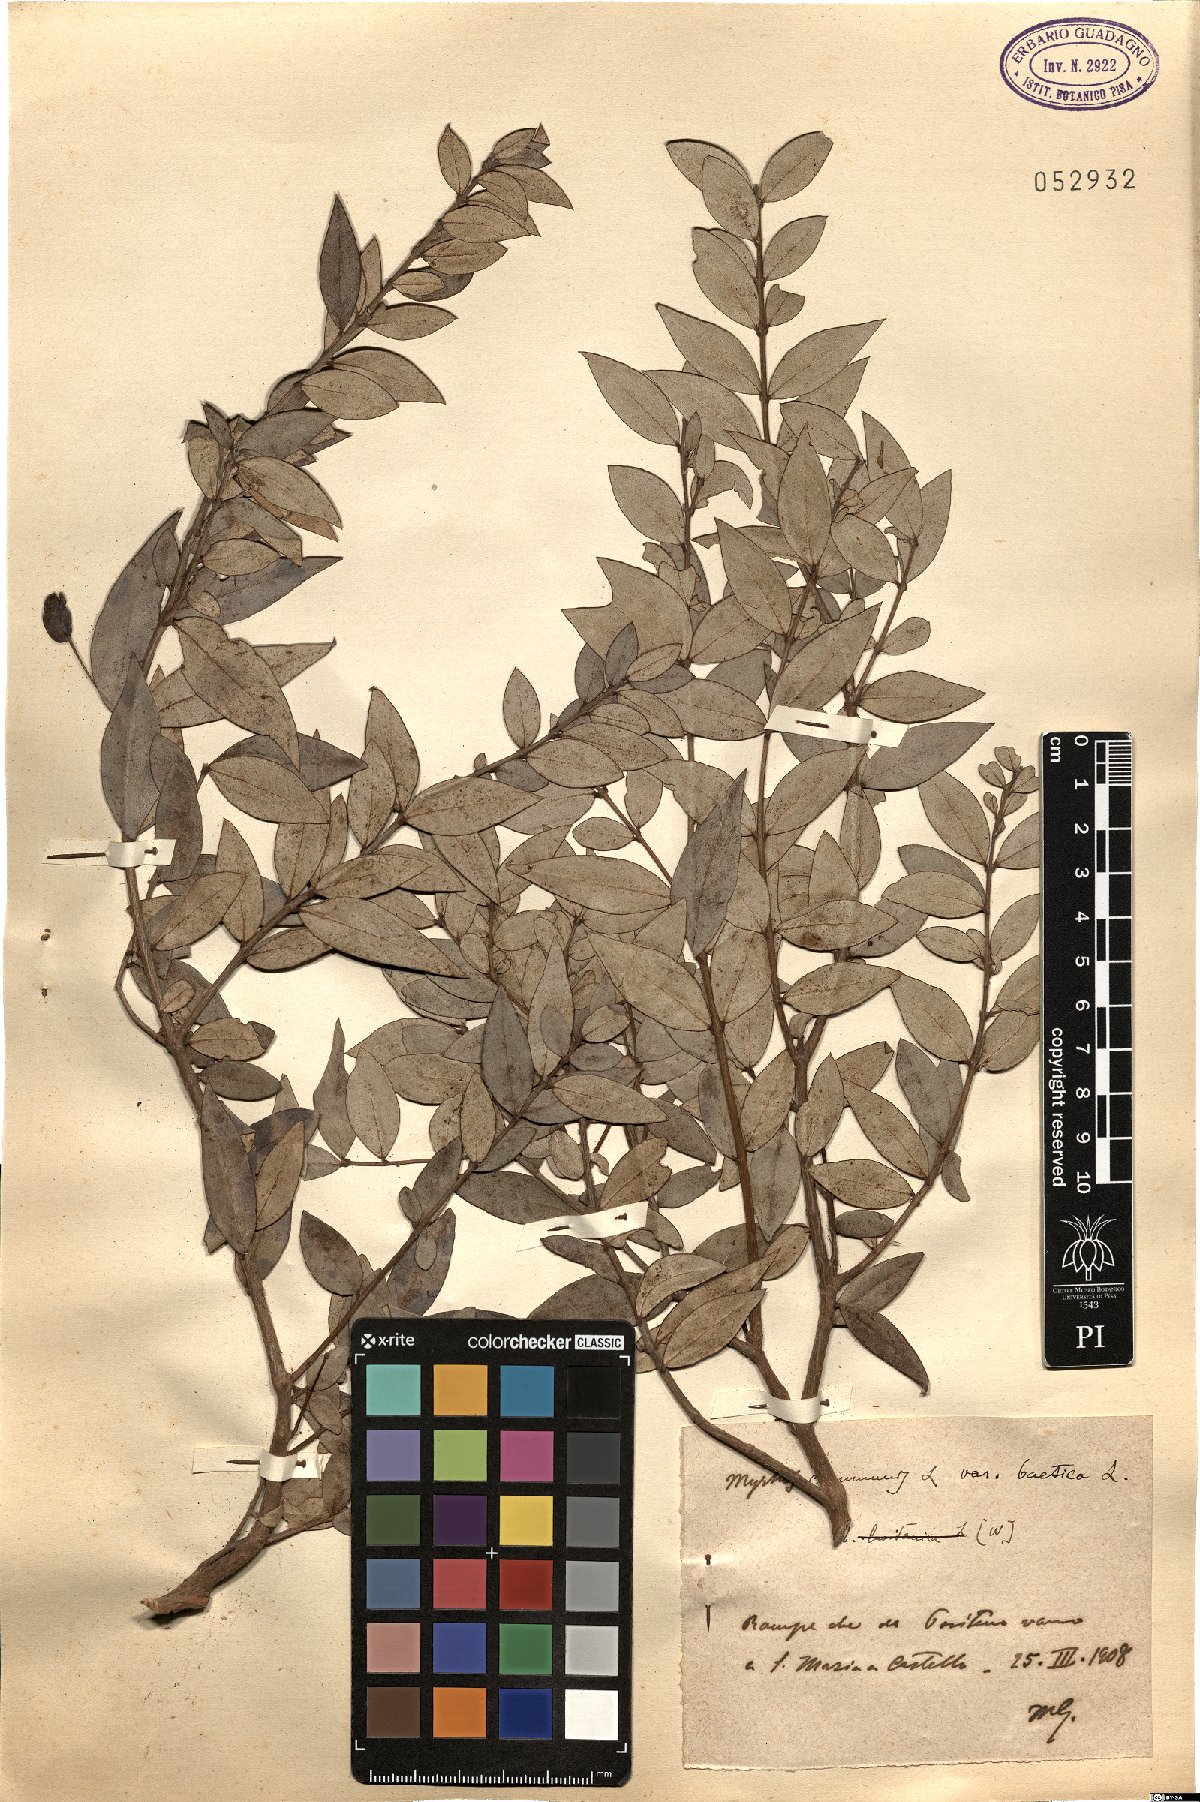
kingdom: Plantae
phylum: Tracheophyta
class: Magnoliopsida
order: Myrtales
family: Myrtaceae
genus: Myrtus
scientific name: Myrtus communis
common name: Myrtle
